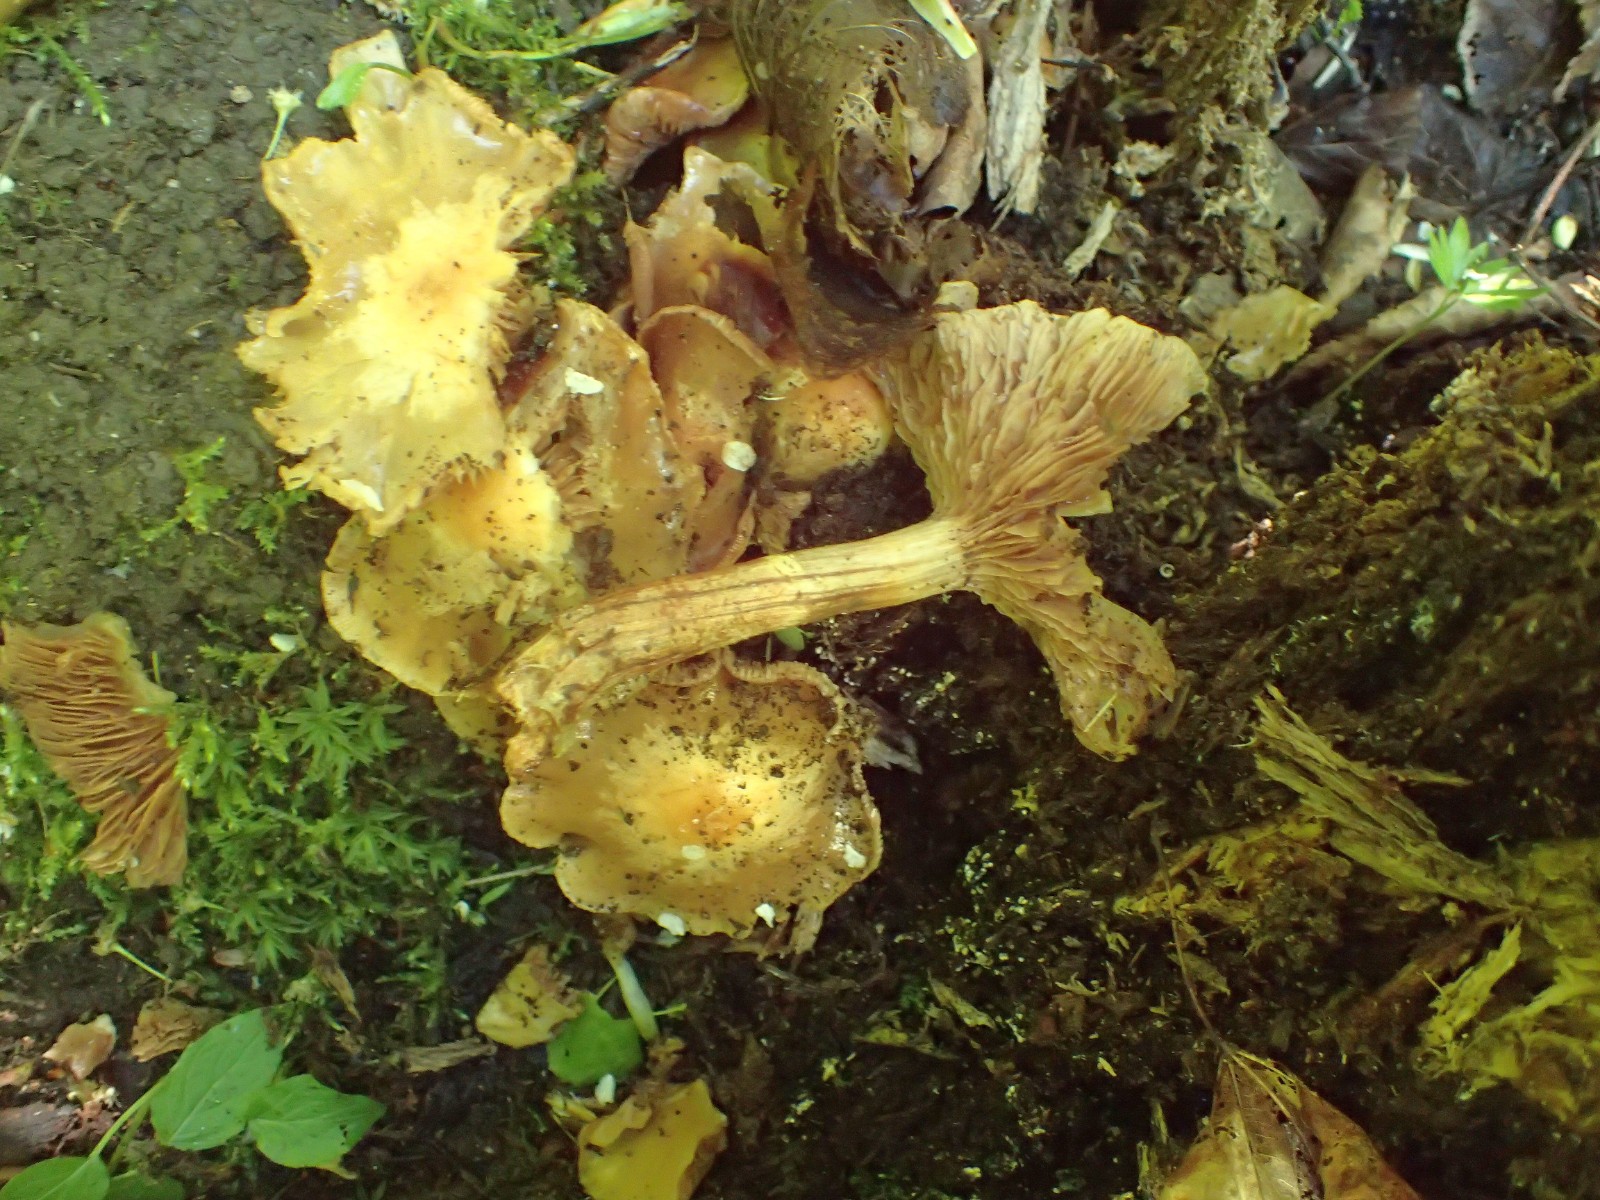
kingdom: Fungi
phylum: Basidiomycota
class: Agaricomycetes
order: Agaricales
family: Strophariaceae
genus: Kuehneromyces
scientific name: Kuehneromyces mutabilis
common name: foranderlig skælhat
